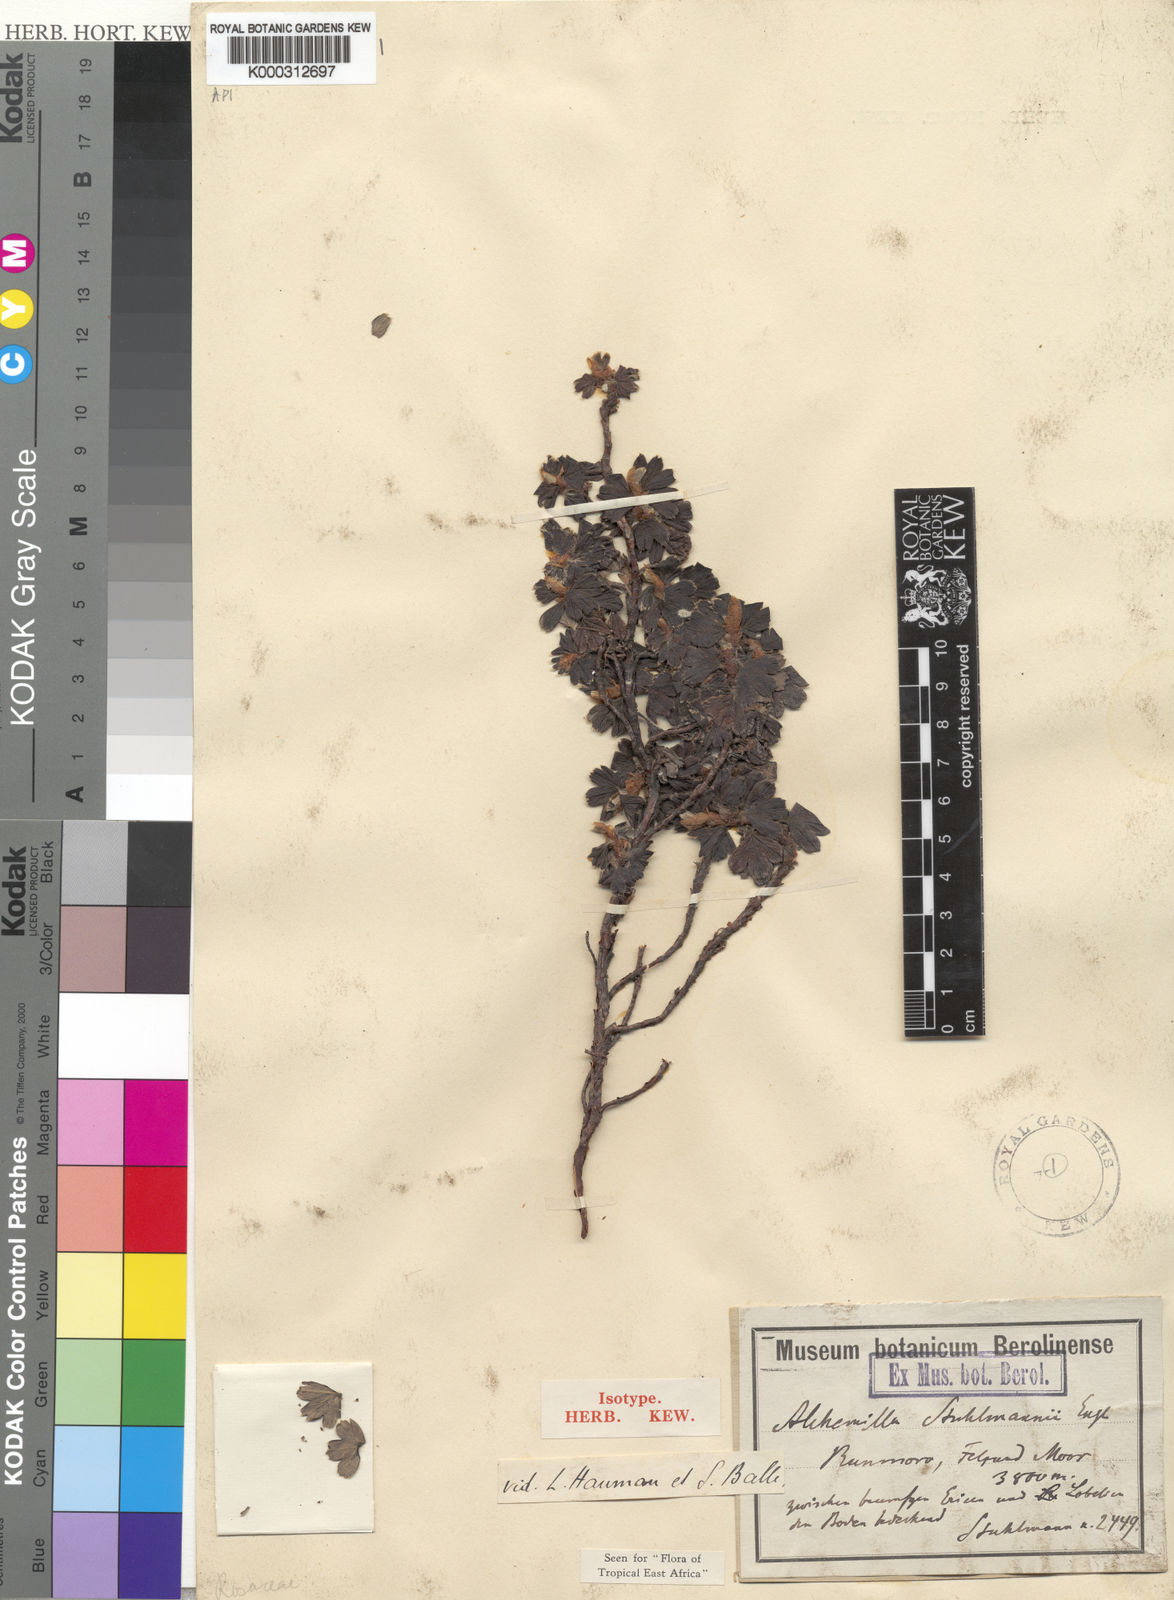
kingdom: Plantae
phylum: Tracheophyta
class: Magnoliopsida
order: Rosales
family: Rosaceae
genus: Alchemilla
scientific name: Alchemilla stuhlmannii
